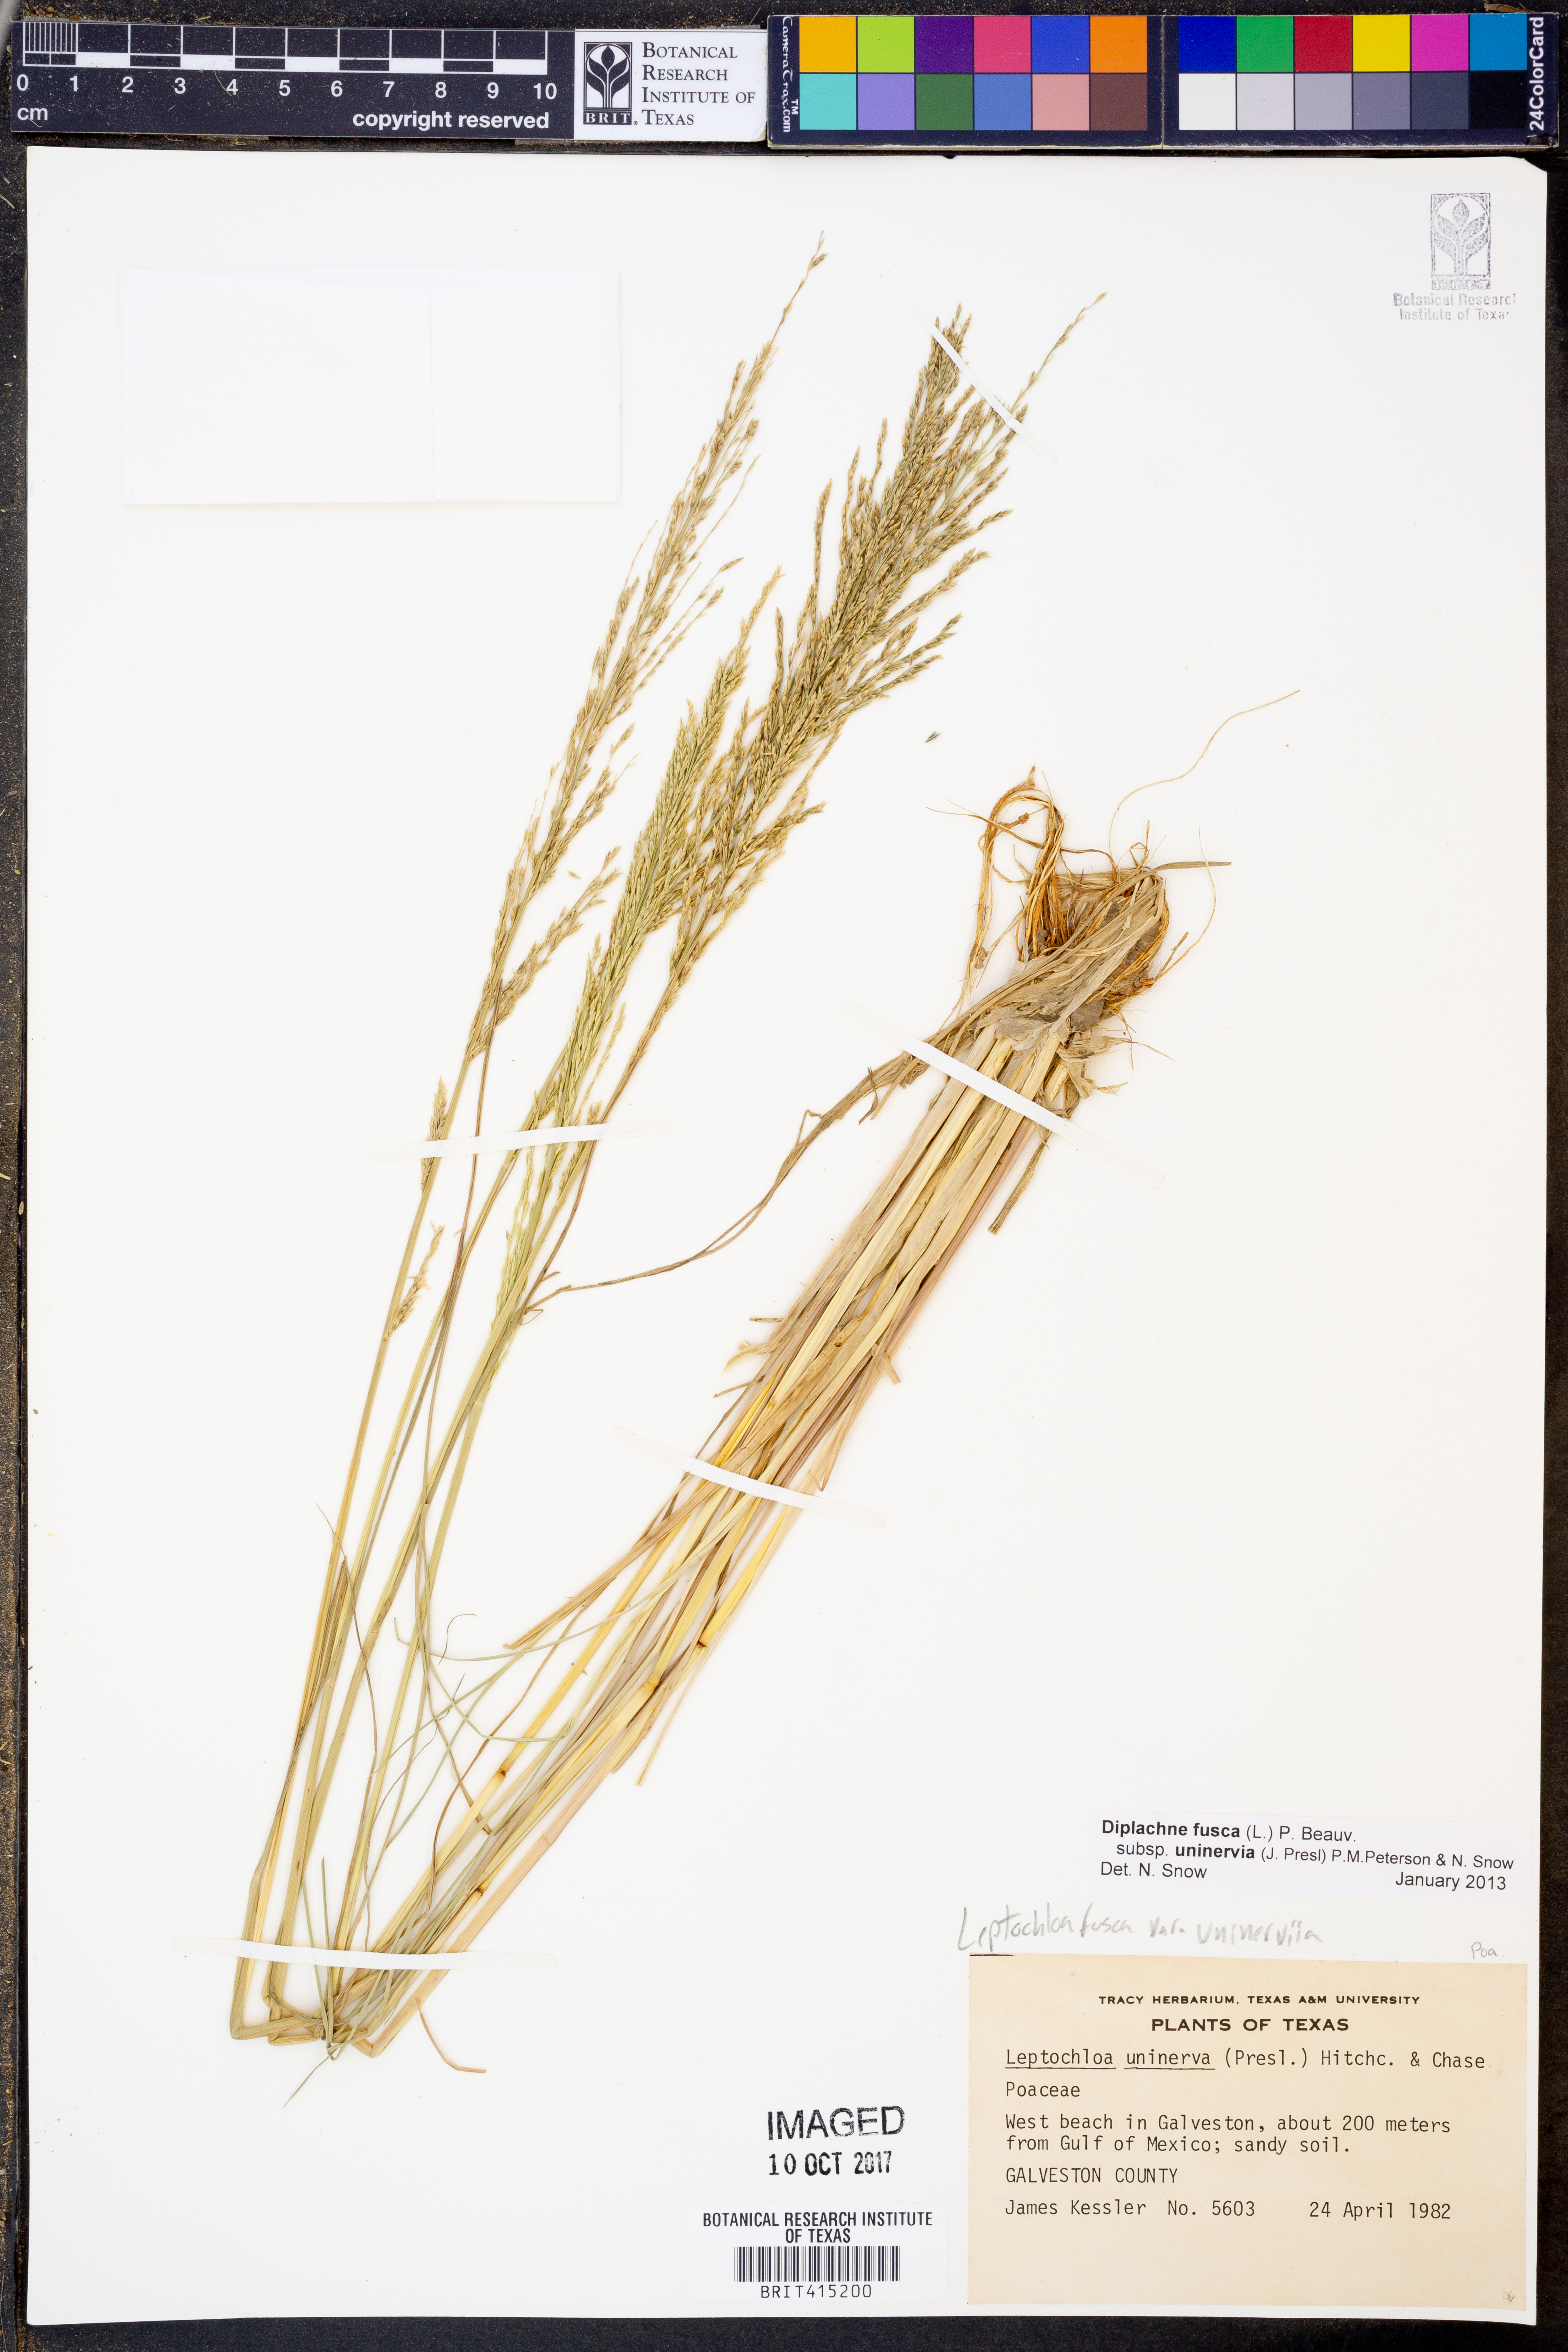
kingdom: Plantae
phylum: Tracheophyta
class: Liliopsida
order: Poales
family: Poaceae
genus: Diplachne
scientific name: Diplachne fusca
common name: Brown beetle grass
